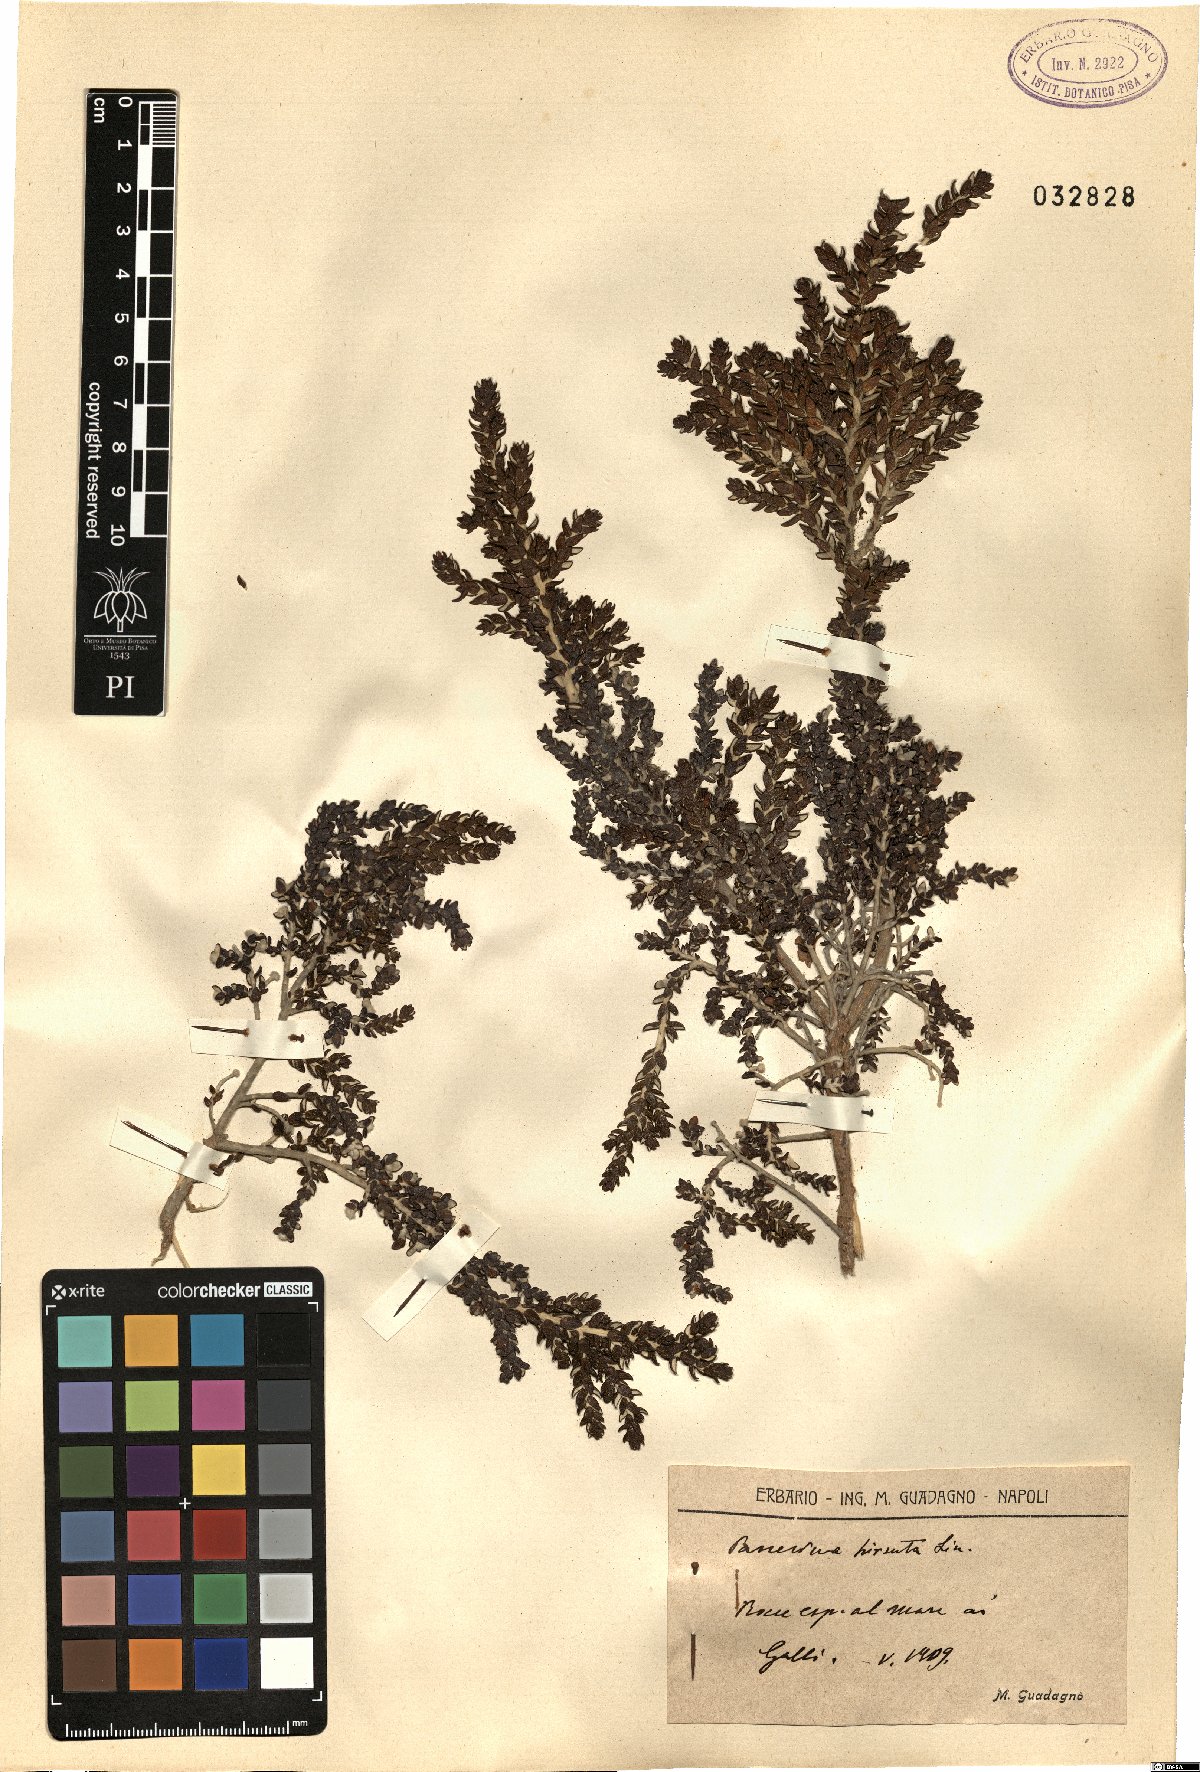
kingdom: Plantae
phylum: Tracheophyta
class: Magnoliopsida
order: Malvales
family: Thymelaeaceae
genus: Thymelaea
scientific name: Thymelaea hirsuta
